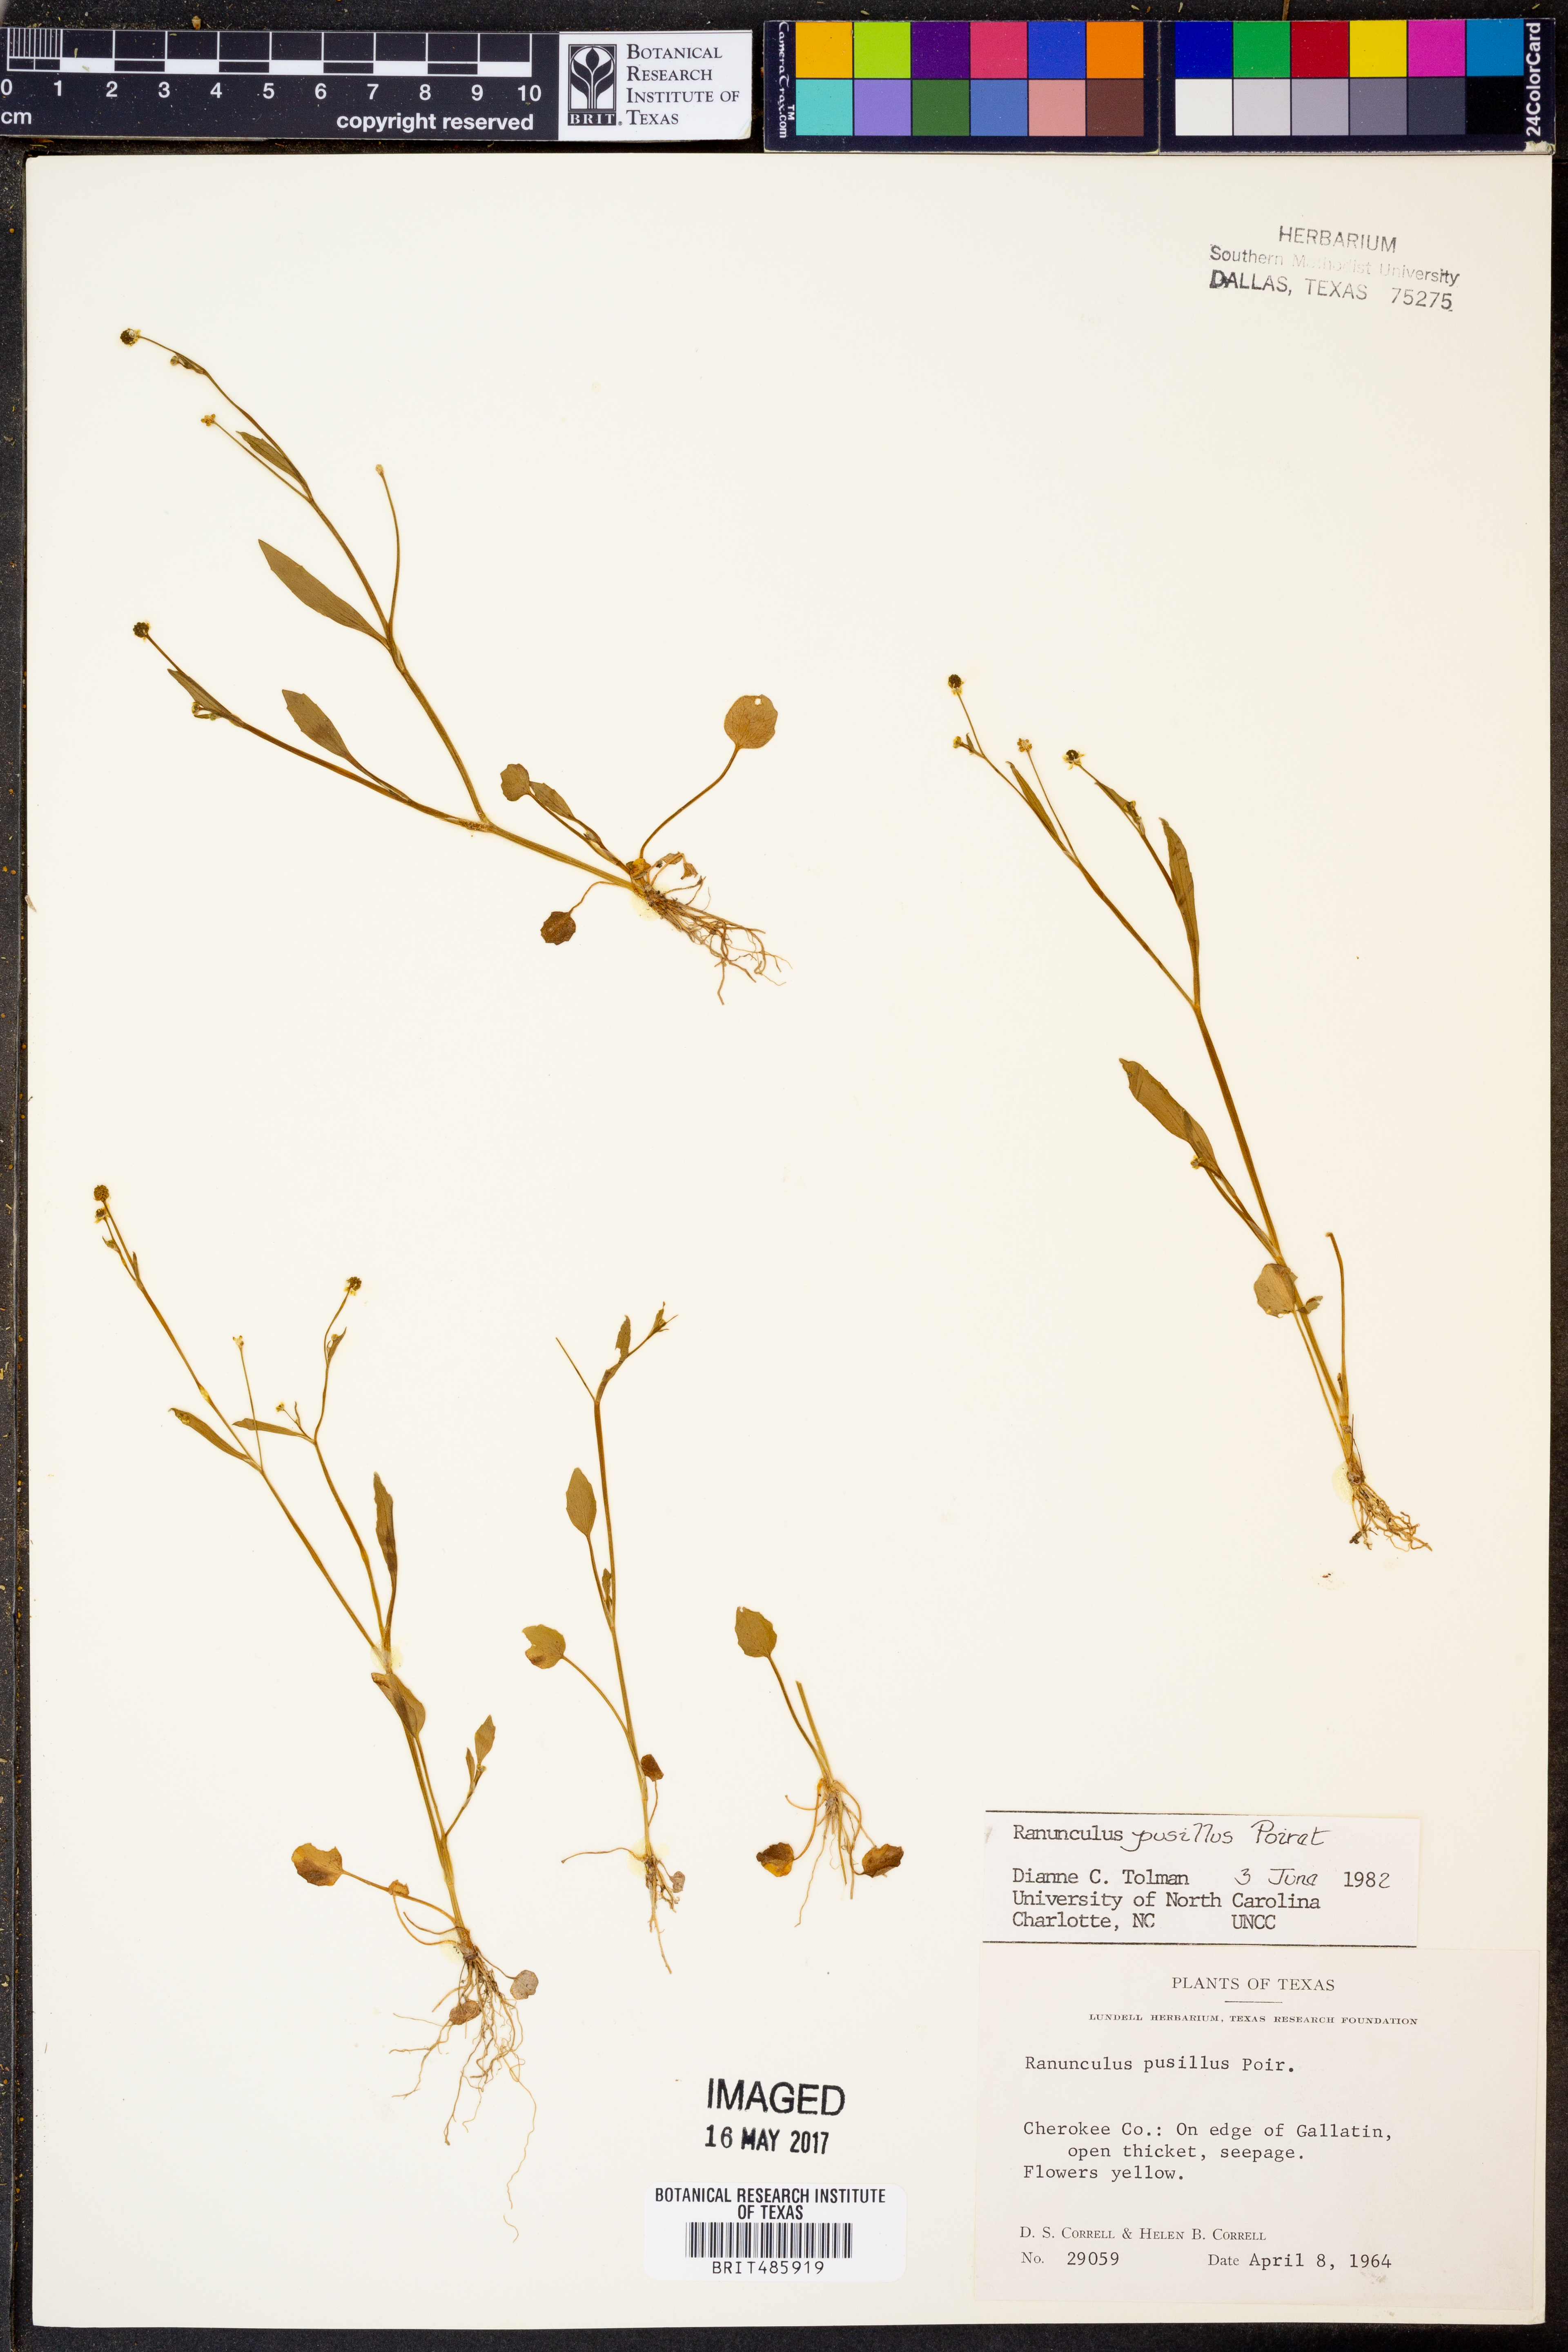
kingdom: Plantae
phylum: Tracheophyta
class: Magnoliopsida
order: Ranunculales
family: Ranunculaceae
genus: Ranunculus
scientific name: Ranunculus pusillus
